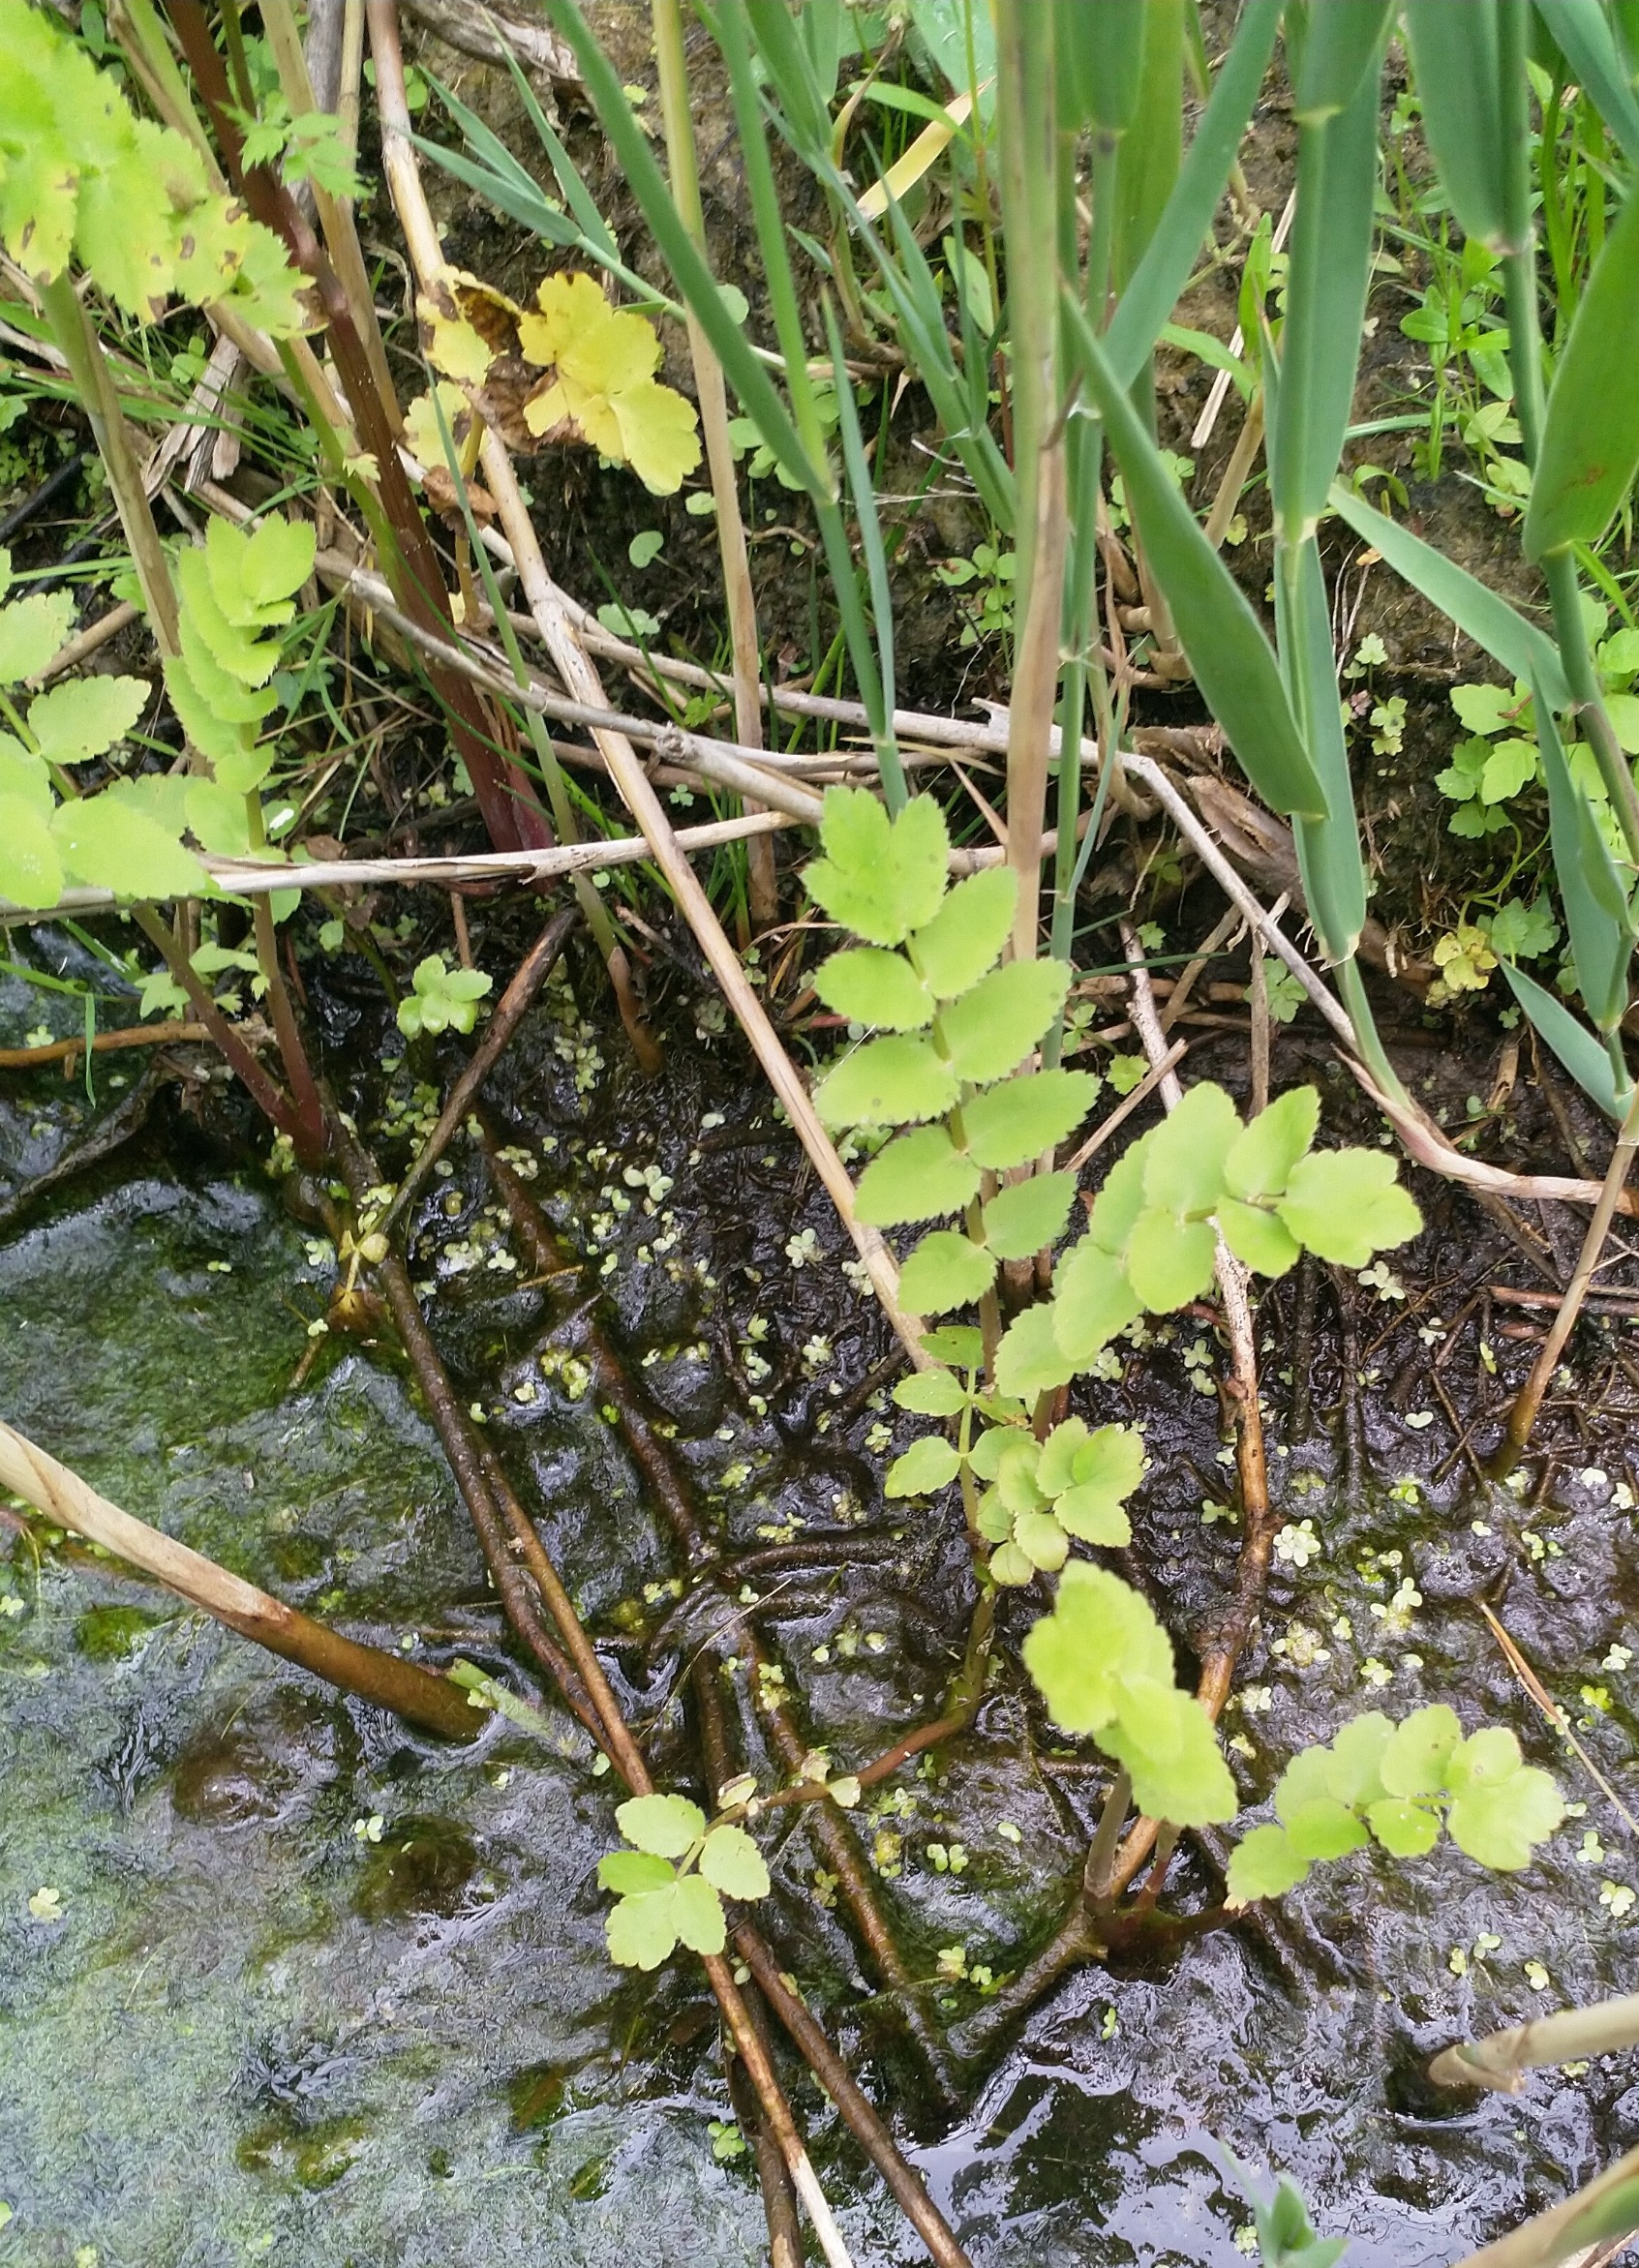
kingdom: Plantae
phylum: Tracheophyta
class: Magnoliopsida
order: Apiales
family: Apiaceae
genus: Berula
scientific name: Berula erecta
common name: Sideskærm
